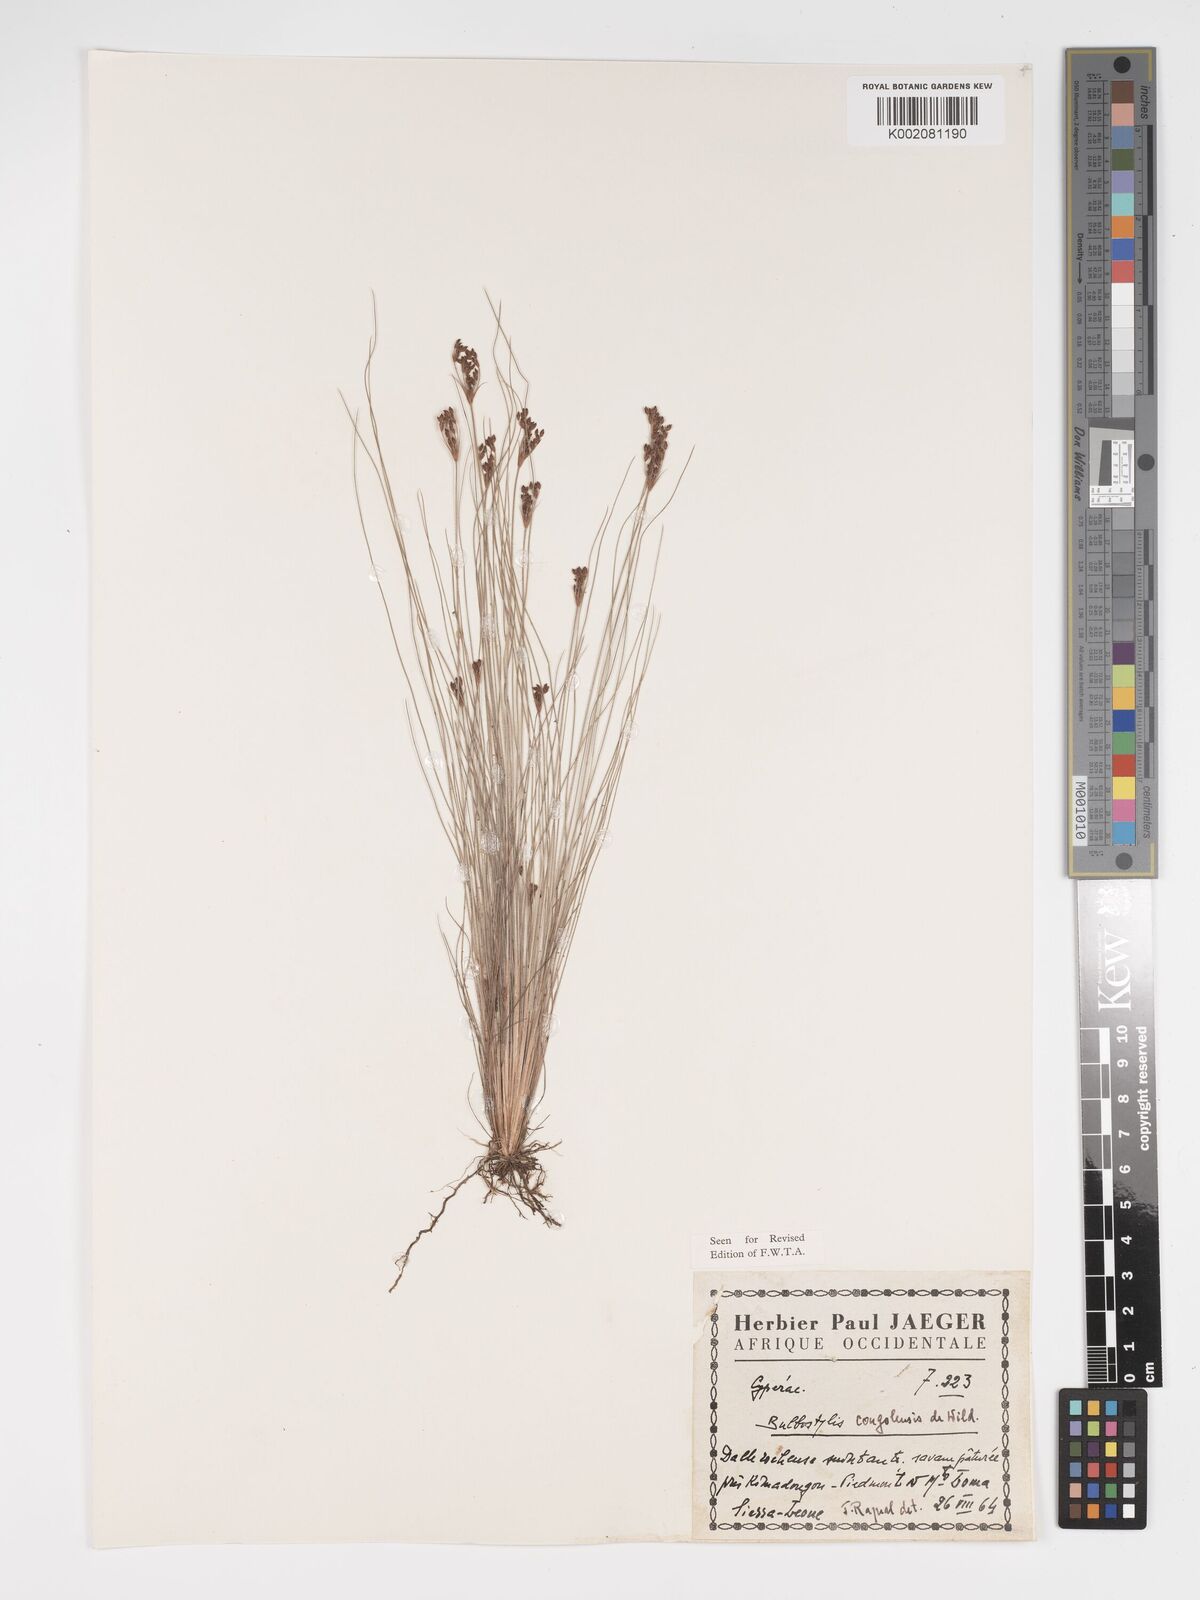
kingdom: Plantae
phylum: Tracheophyta
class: Liliopsida
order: Poales
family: Cyperaceae
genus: Bulbostylis
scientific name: Bulbostylis congolensis
